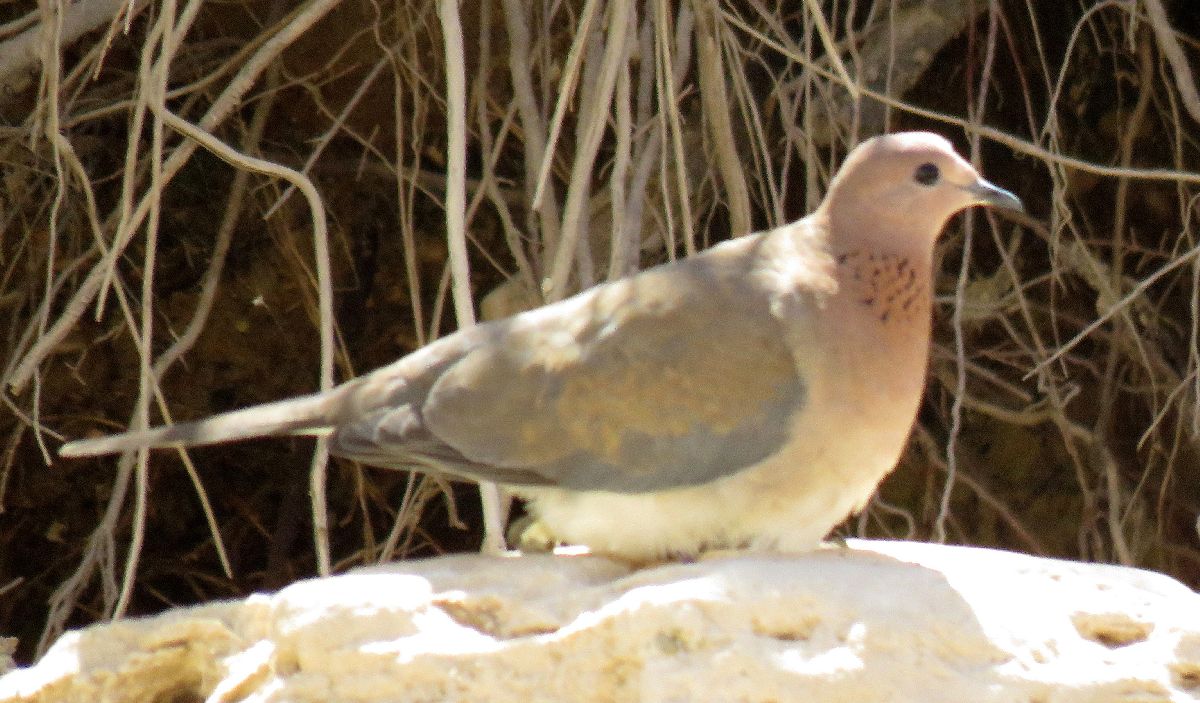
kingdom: Animalia
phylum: Chordata
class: Aves
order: Columbiformes
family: Columbidae
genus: Spilopelia
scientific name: Spilopelia senegalensis
